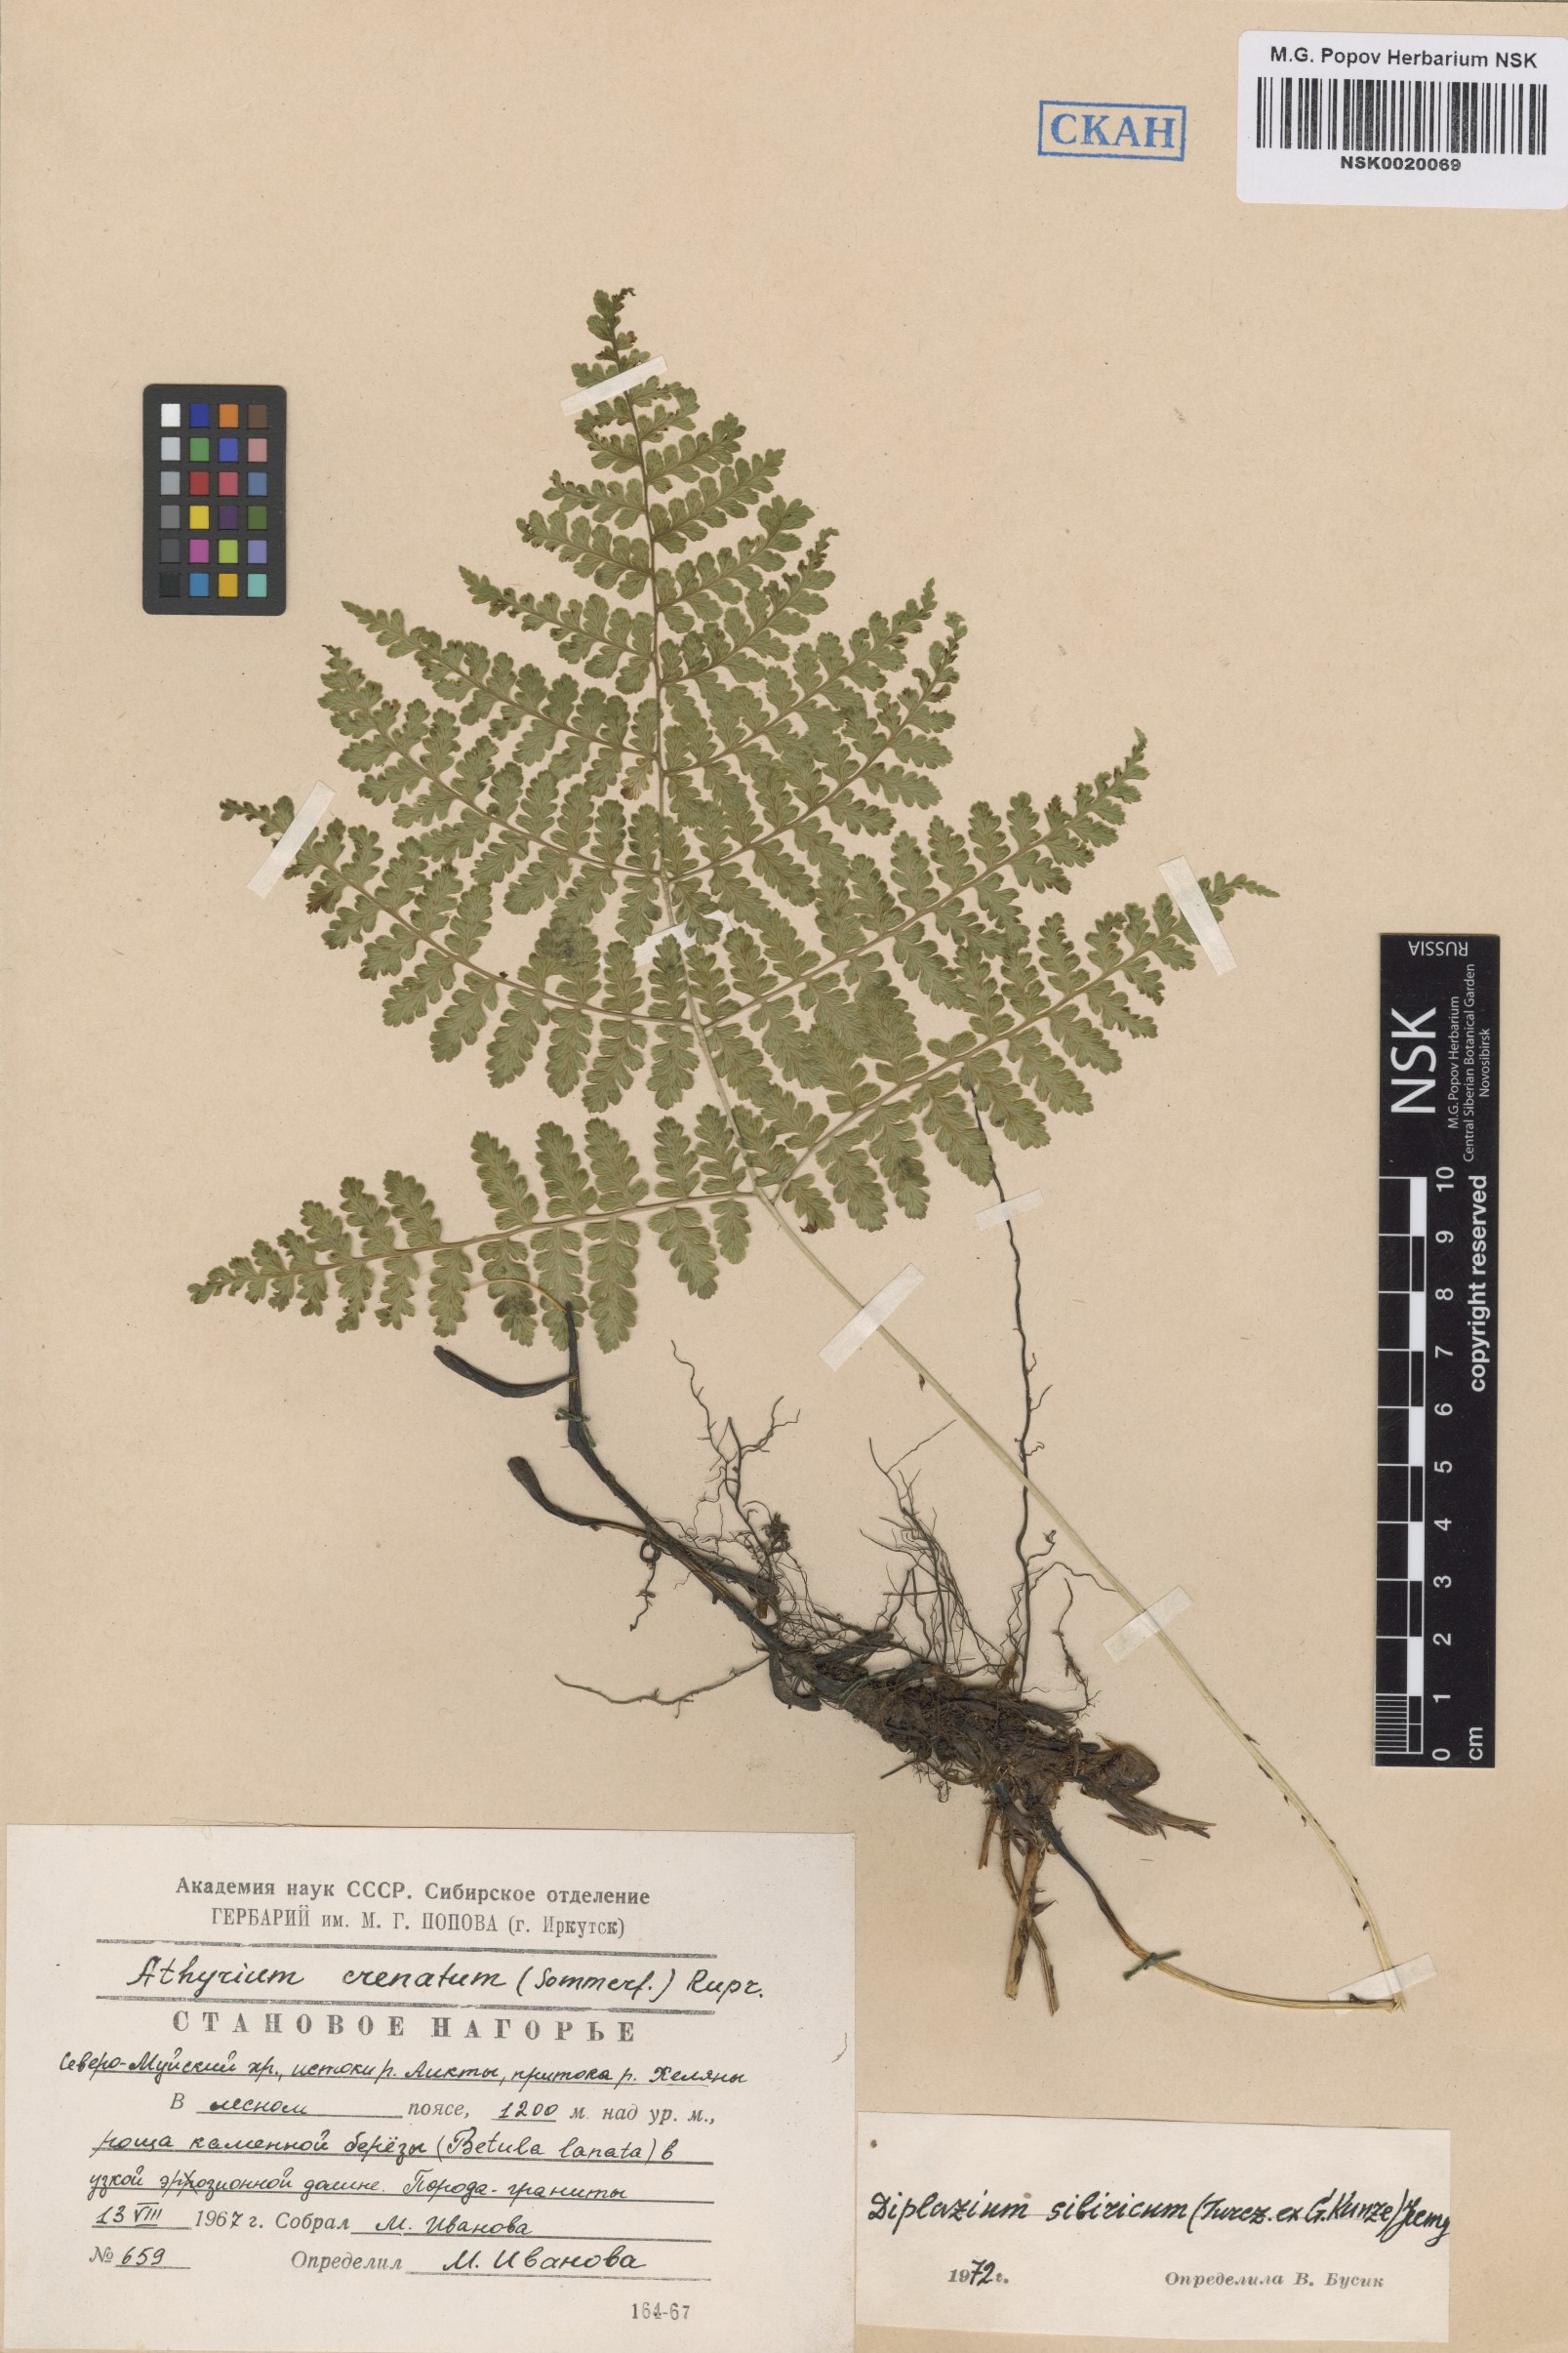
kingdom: Plantae
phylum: Tracheophyta
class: Polypodiopsida
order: Polypodiales
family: Athyriaceae
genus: Diplazium
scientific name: Diplazium sibiricum
